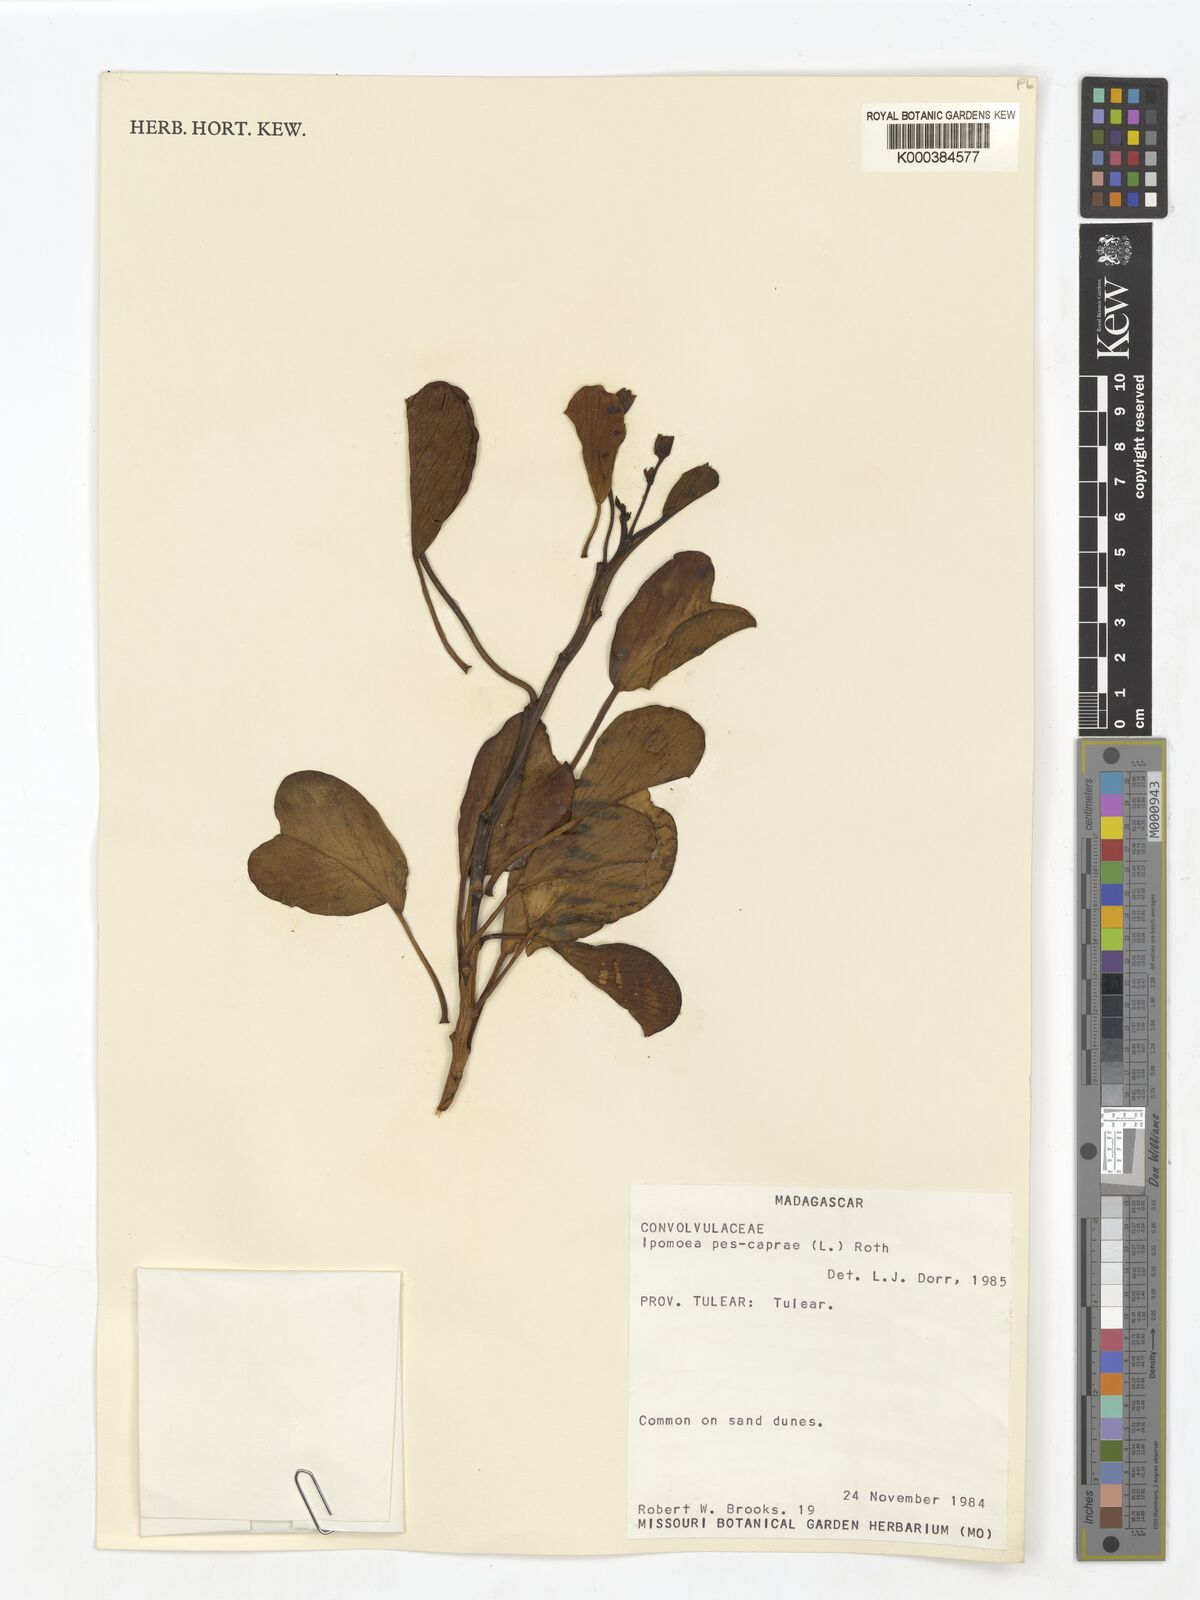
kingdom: Plantae
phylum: Tracheophyta
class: Magnoliopsida
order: Solanales
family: Convolvulaceae
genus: Ipomoea
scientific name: Ipomoea
